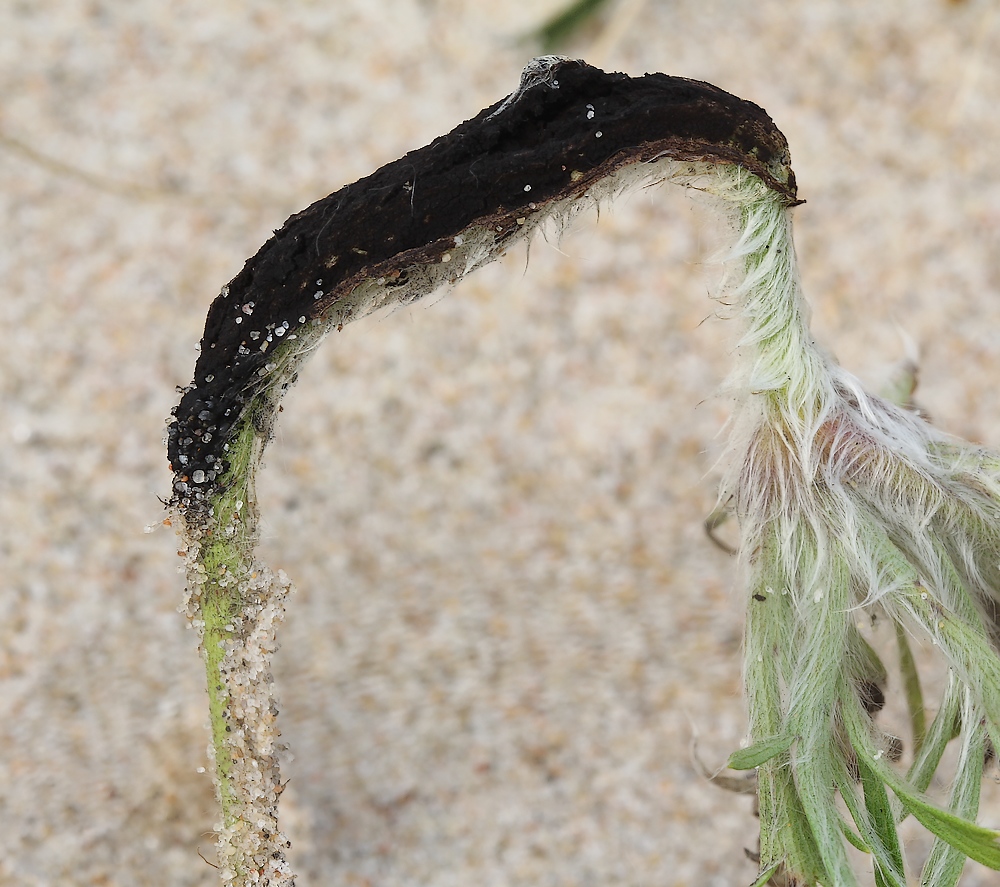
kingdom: Fungi
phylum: Basidiomycota
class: Ustilaginomycetes
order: Urocystidales
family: Urocystidaceae
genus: Urocystis
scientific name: Urocystis pulsatillae
